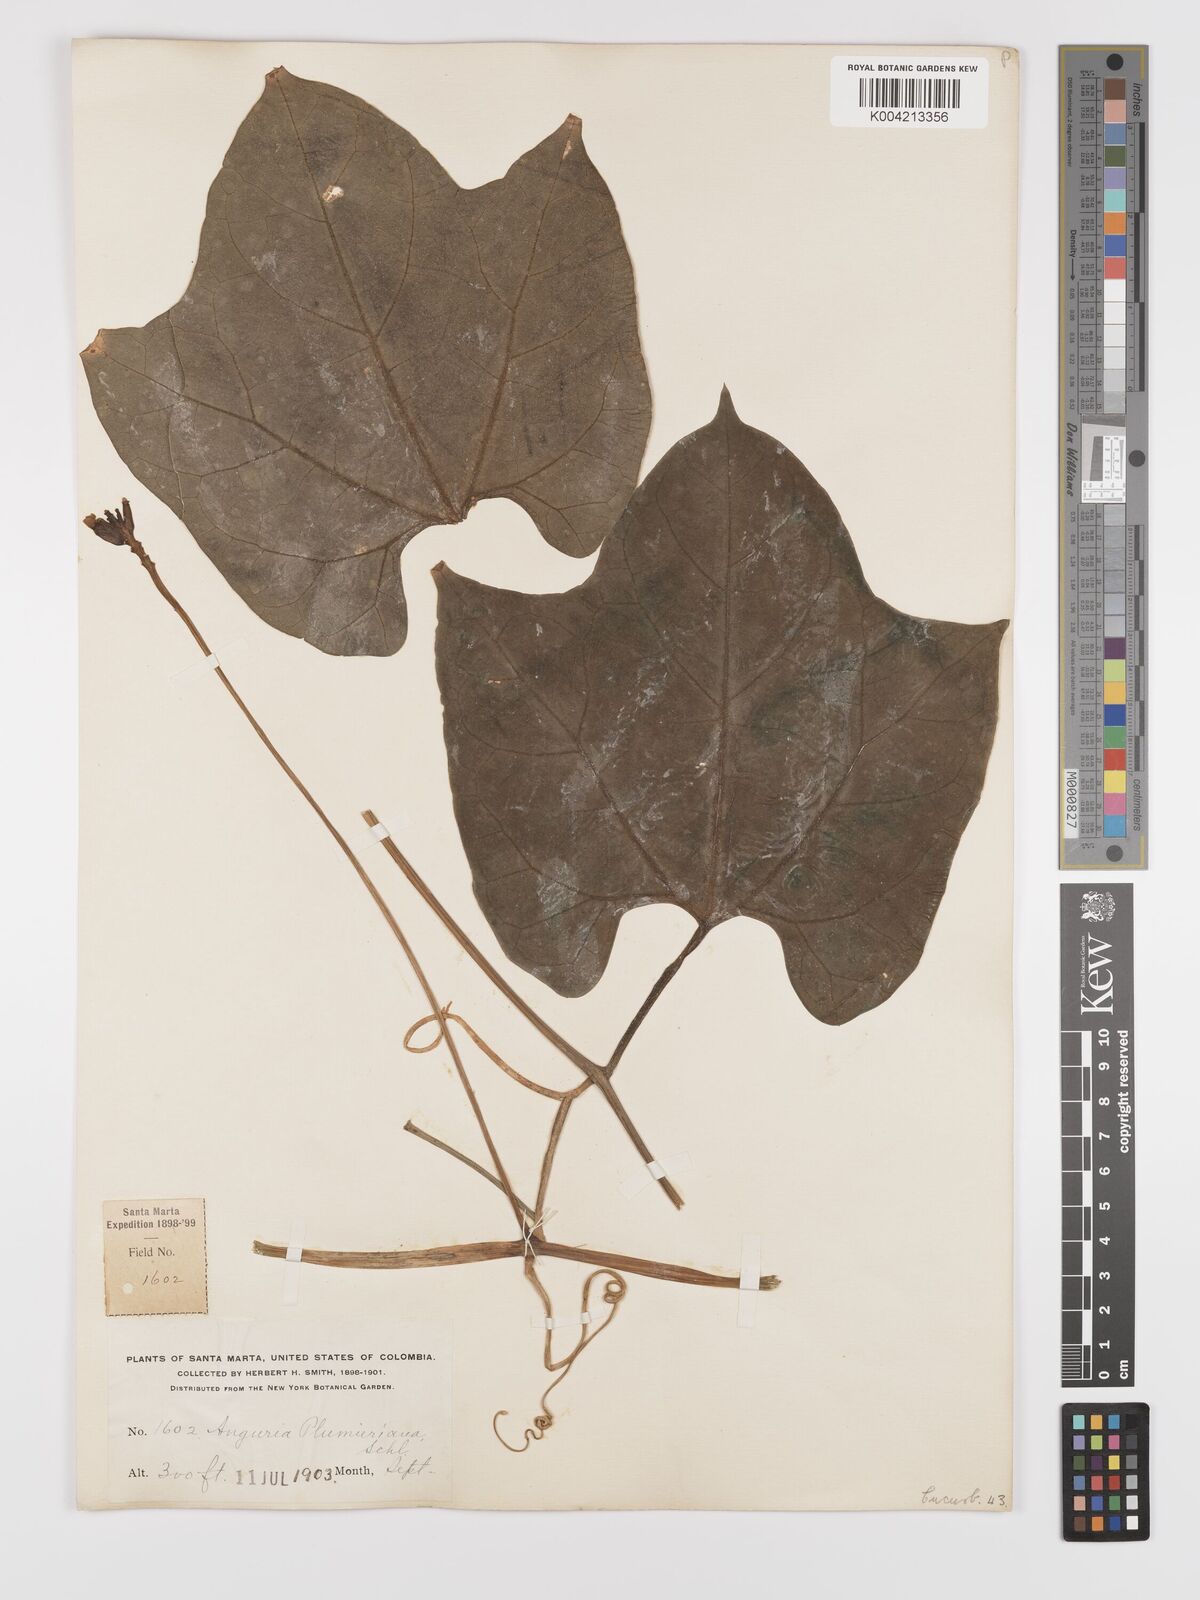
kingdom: Plantae
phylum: Tracheophyta
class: Magnoliopsida
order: Cucurbitales
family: Cucurbitaceae
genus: Psiguria
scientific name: Psiguria warscewiczii
